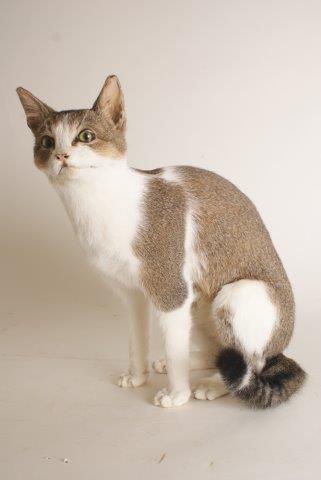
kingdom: Animalia
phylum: Chordata
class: Mammalia
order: Carnivora
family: Felidae
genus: Felis
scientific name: Felis catus
